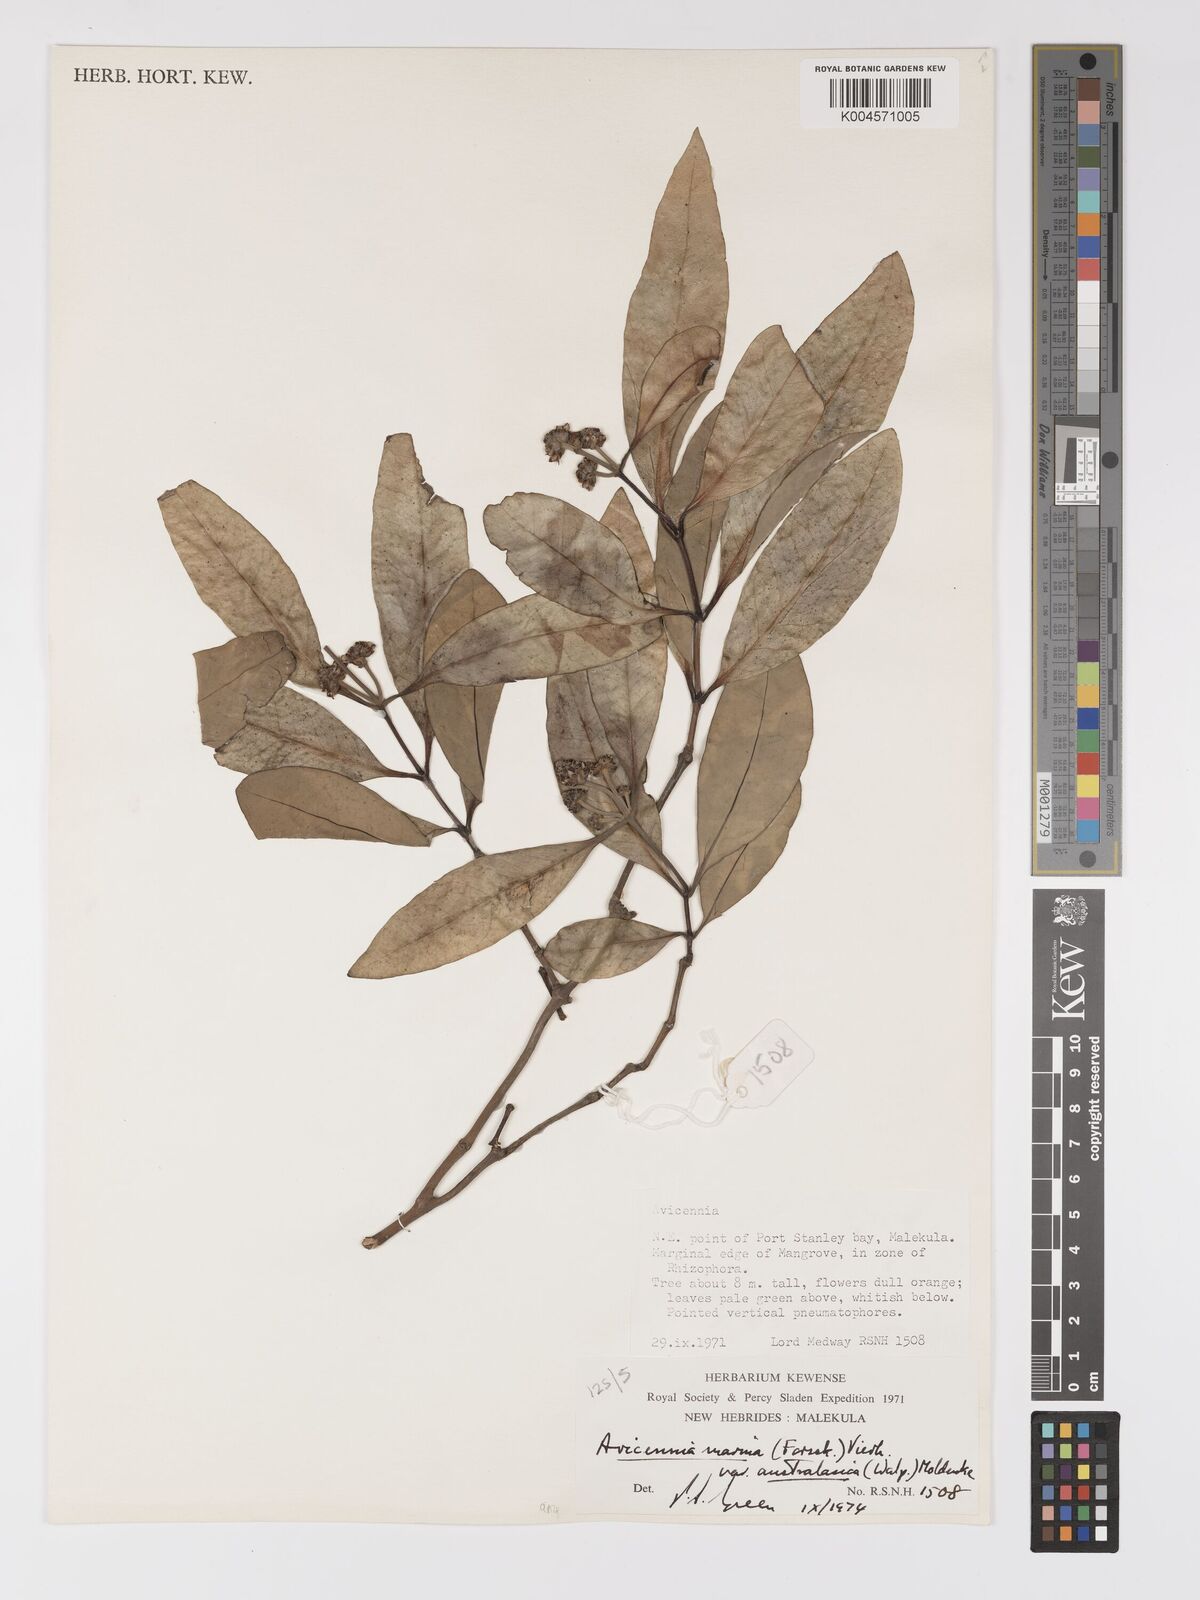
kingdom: Plantae
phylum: Tracheophyta
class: Magnoliopsida
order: Lamiales
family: Acanthaceae
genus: Avicennia
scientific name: Avicennia marina
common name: Gray mangrove
